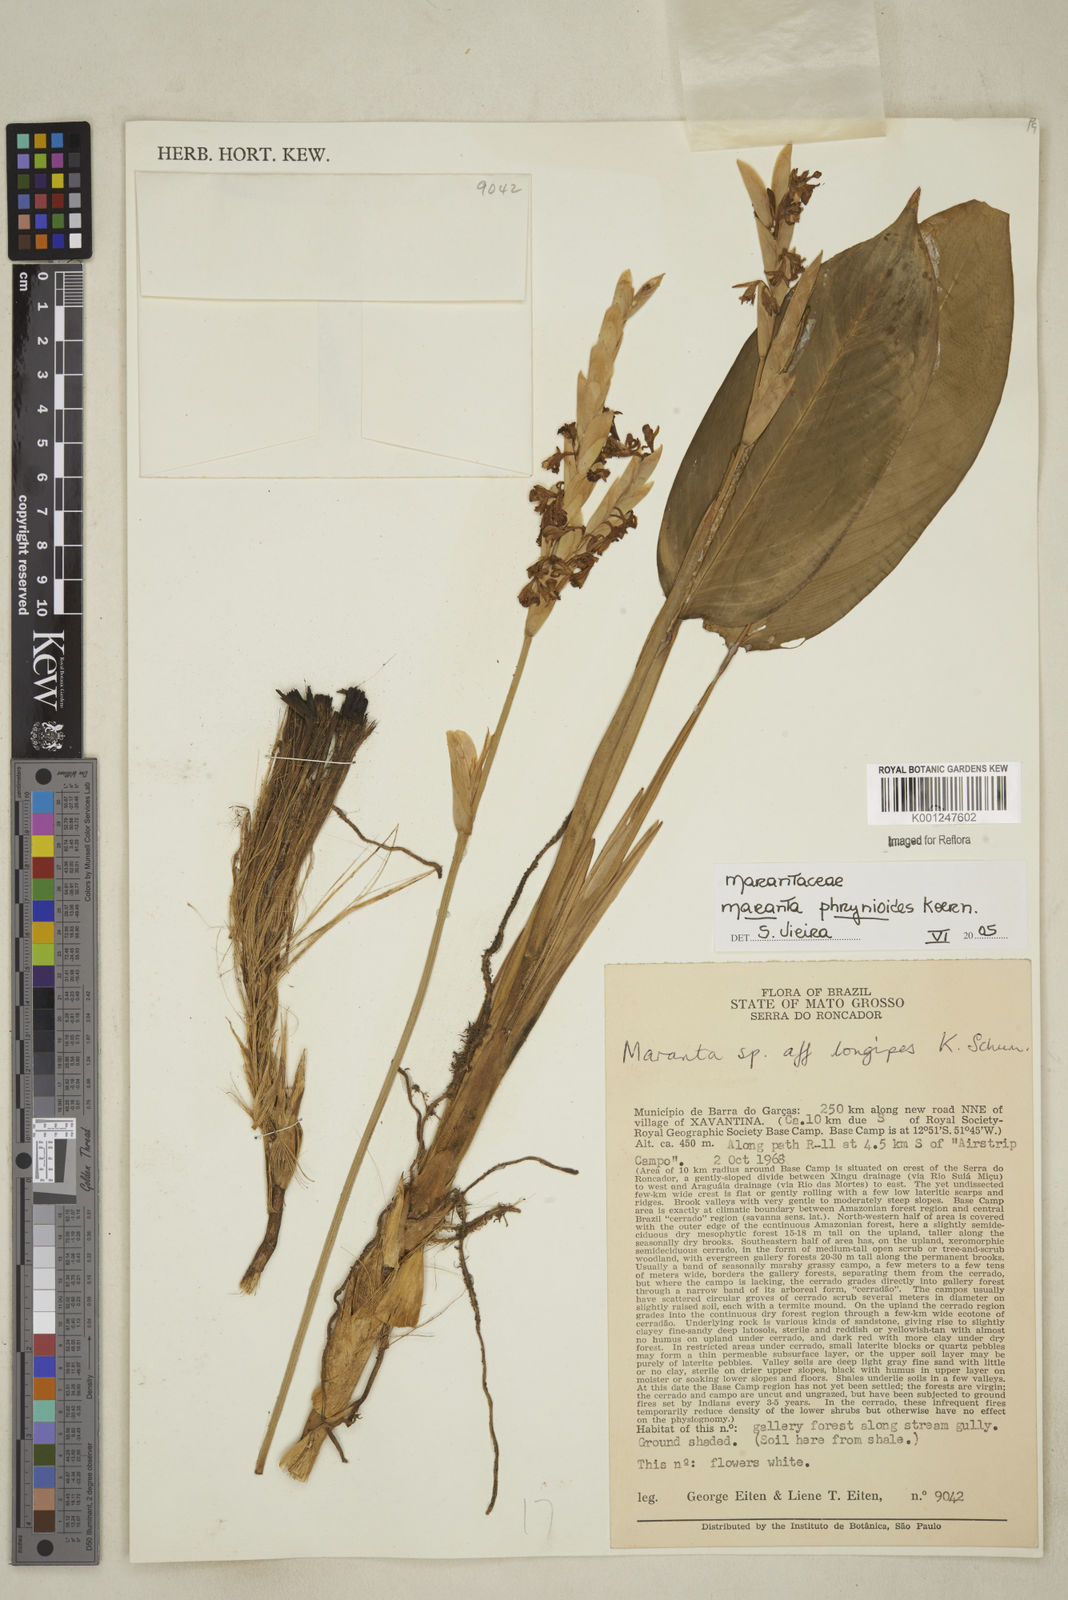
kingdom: Plantae
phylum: Tracheophyta
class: Liliopsida
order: Zingiberales
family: Marantaceae
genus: Maranta
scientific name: Maranta phrynioides
